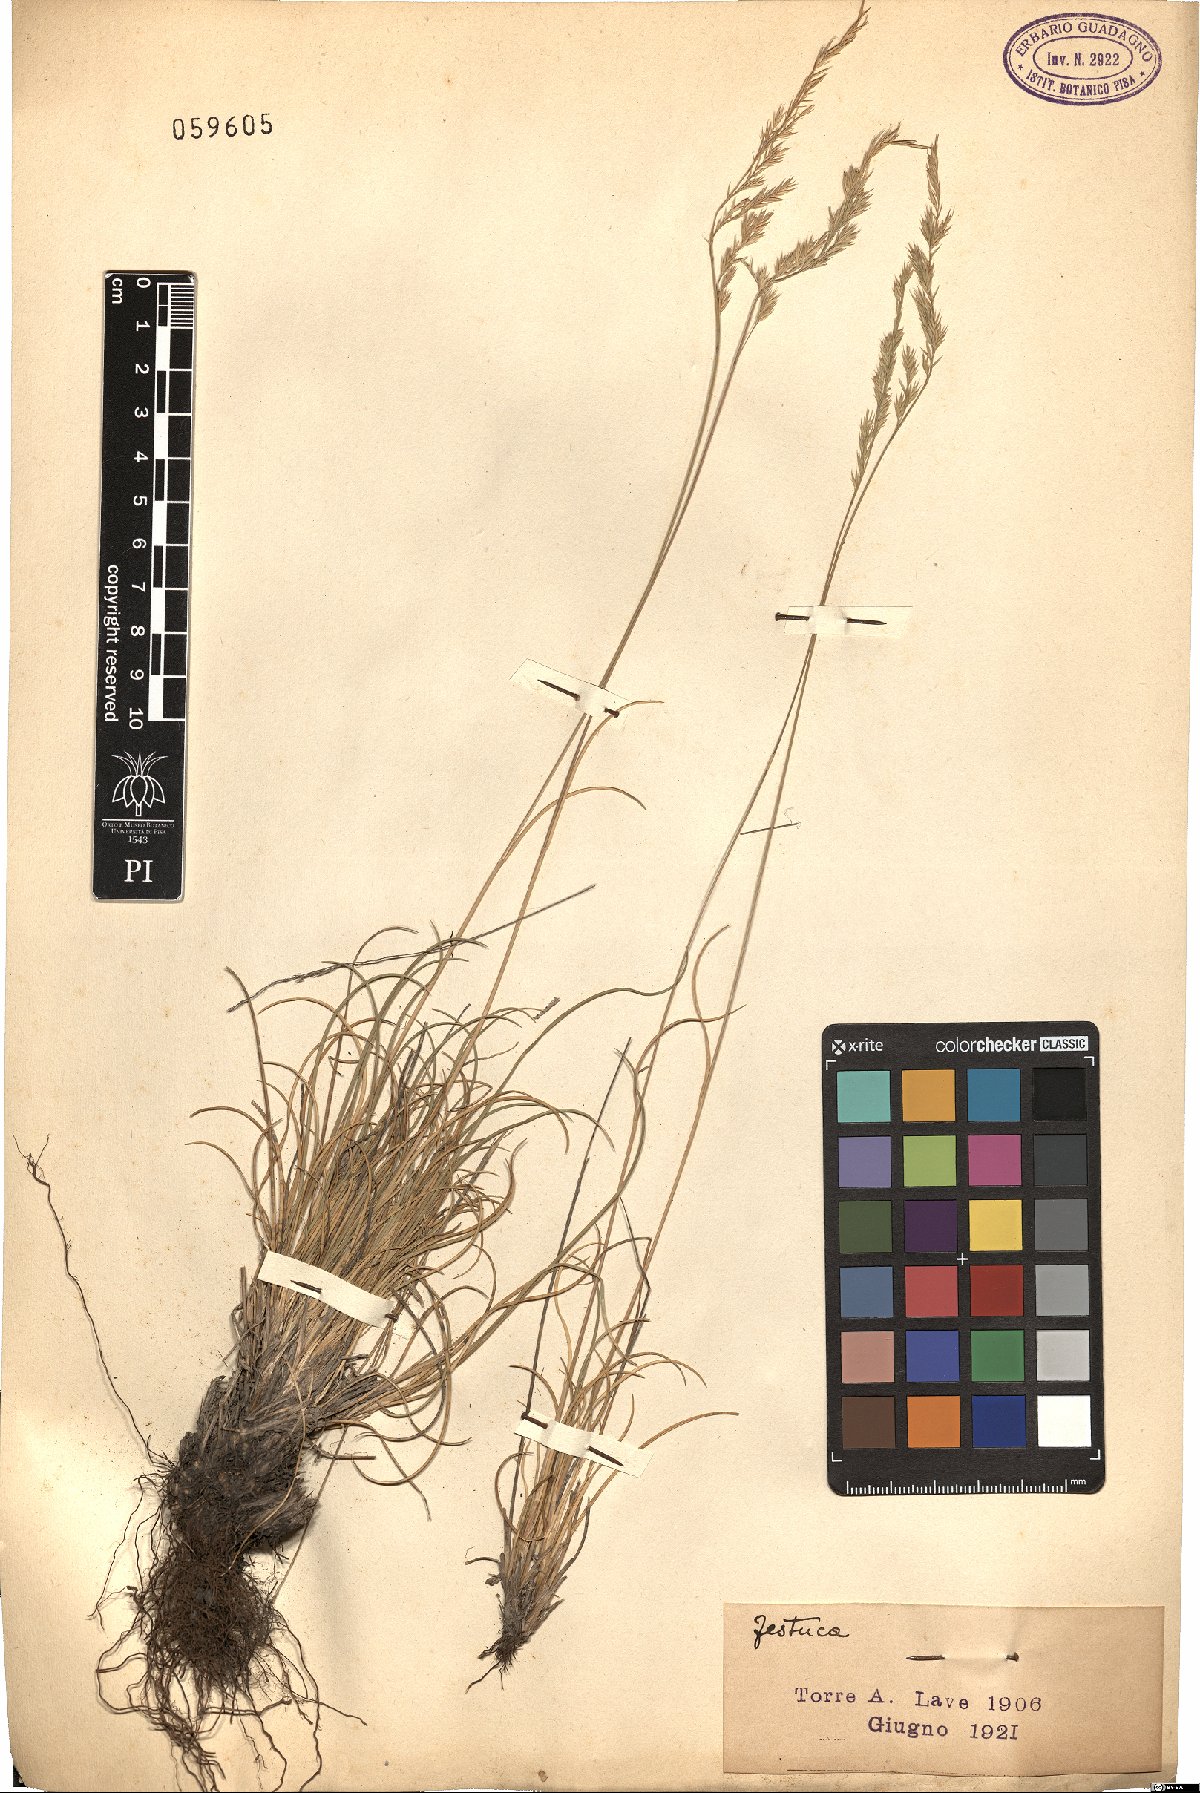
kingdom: Plantae
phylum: Tracheophyta
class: Liliopsida
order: Poales
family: Poaceae
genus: Festuca
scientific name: Festuca
